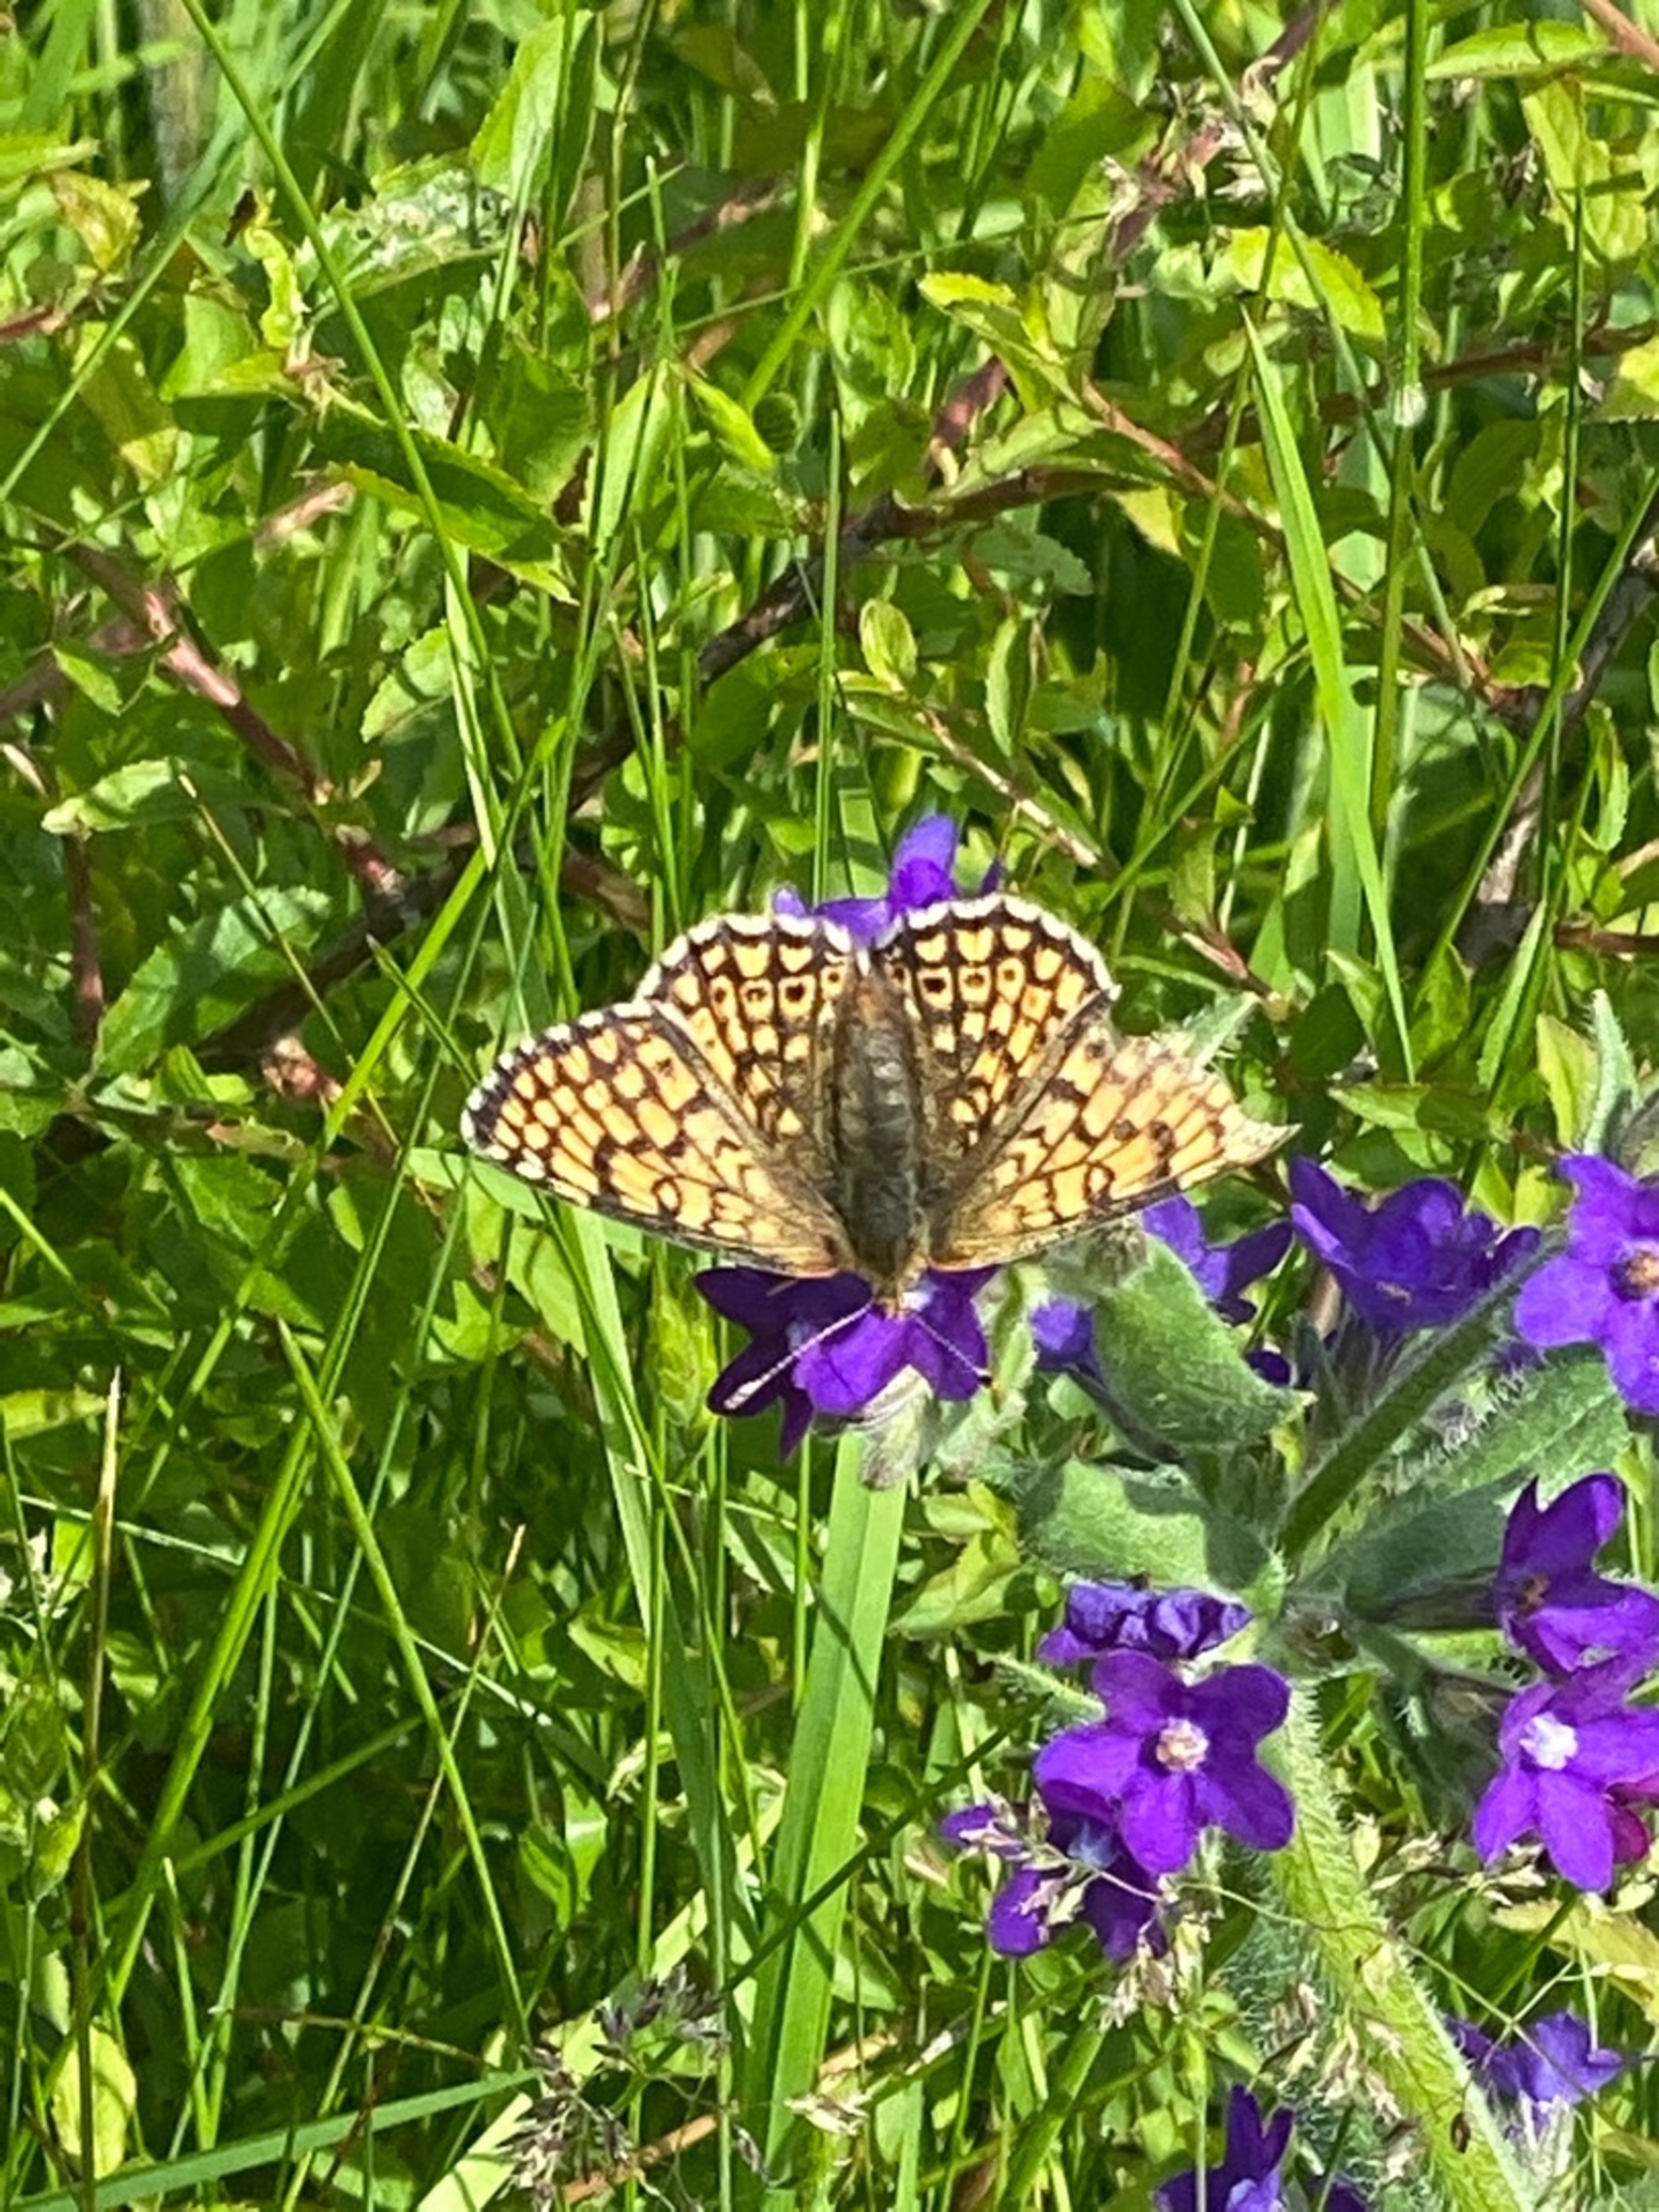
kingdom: Animalia
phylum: Arthropoda
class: Insecta
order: Lepidoptera
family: Nymphalidae
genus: Melitaea
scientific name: Melitaea cinxia
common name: Okkergul pletvinge
